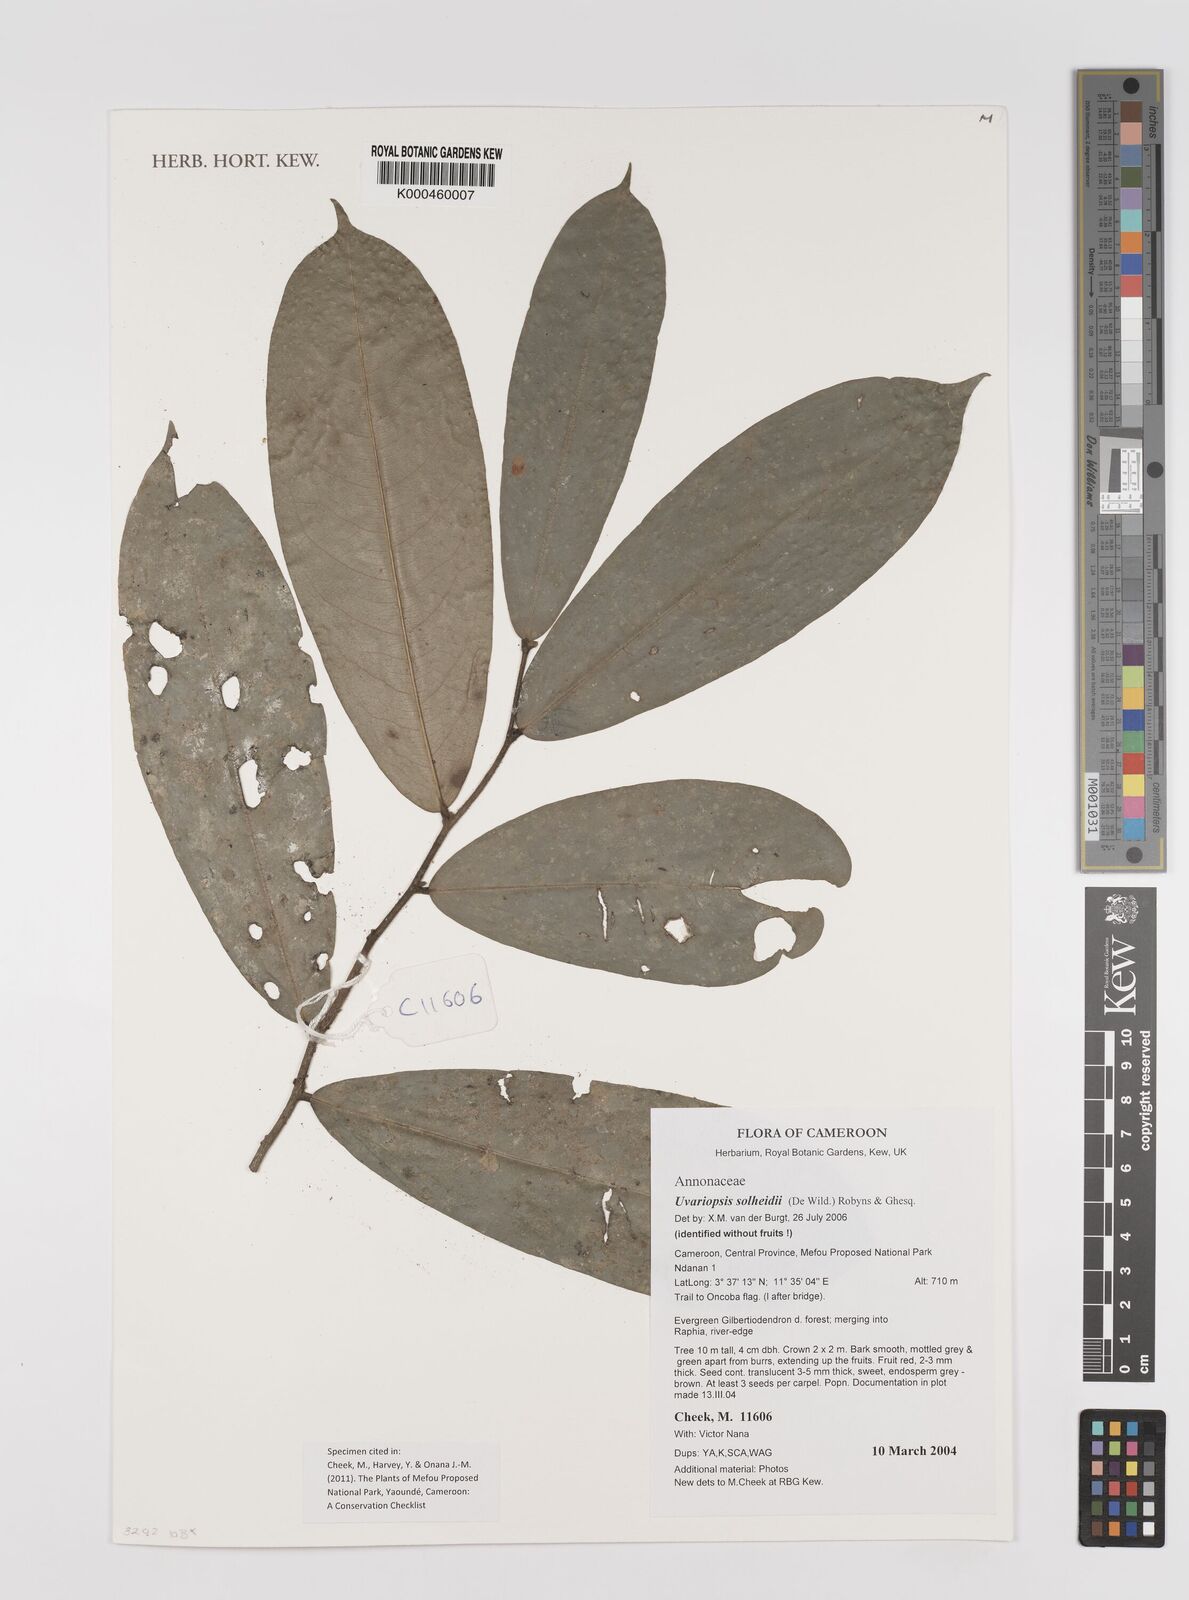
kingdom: Plantae
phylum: Tracheophyta
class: Magnoliopsida
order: Magnoliales
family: Annonaceae
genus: Uvariopsis
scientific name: Uvariopsis solheidii
